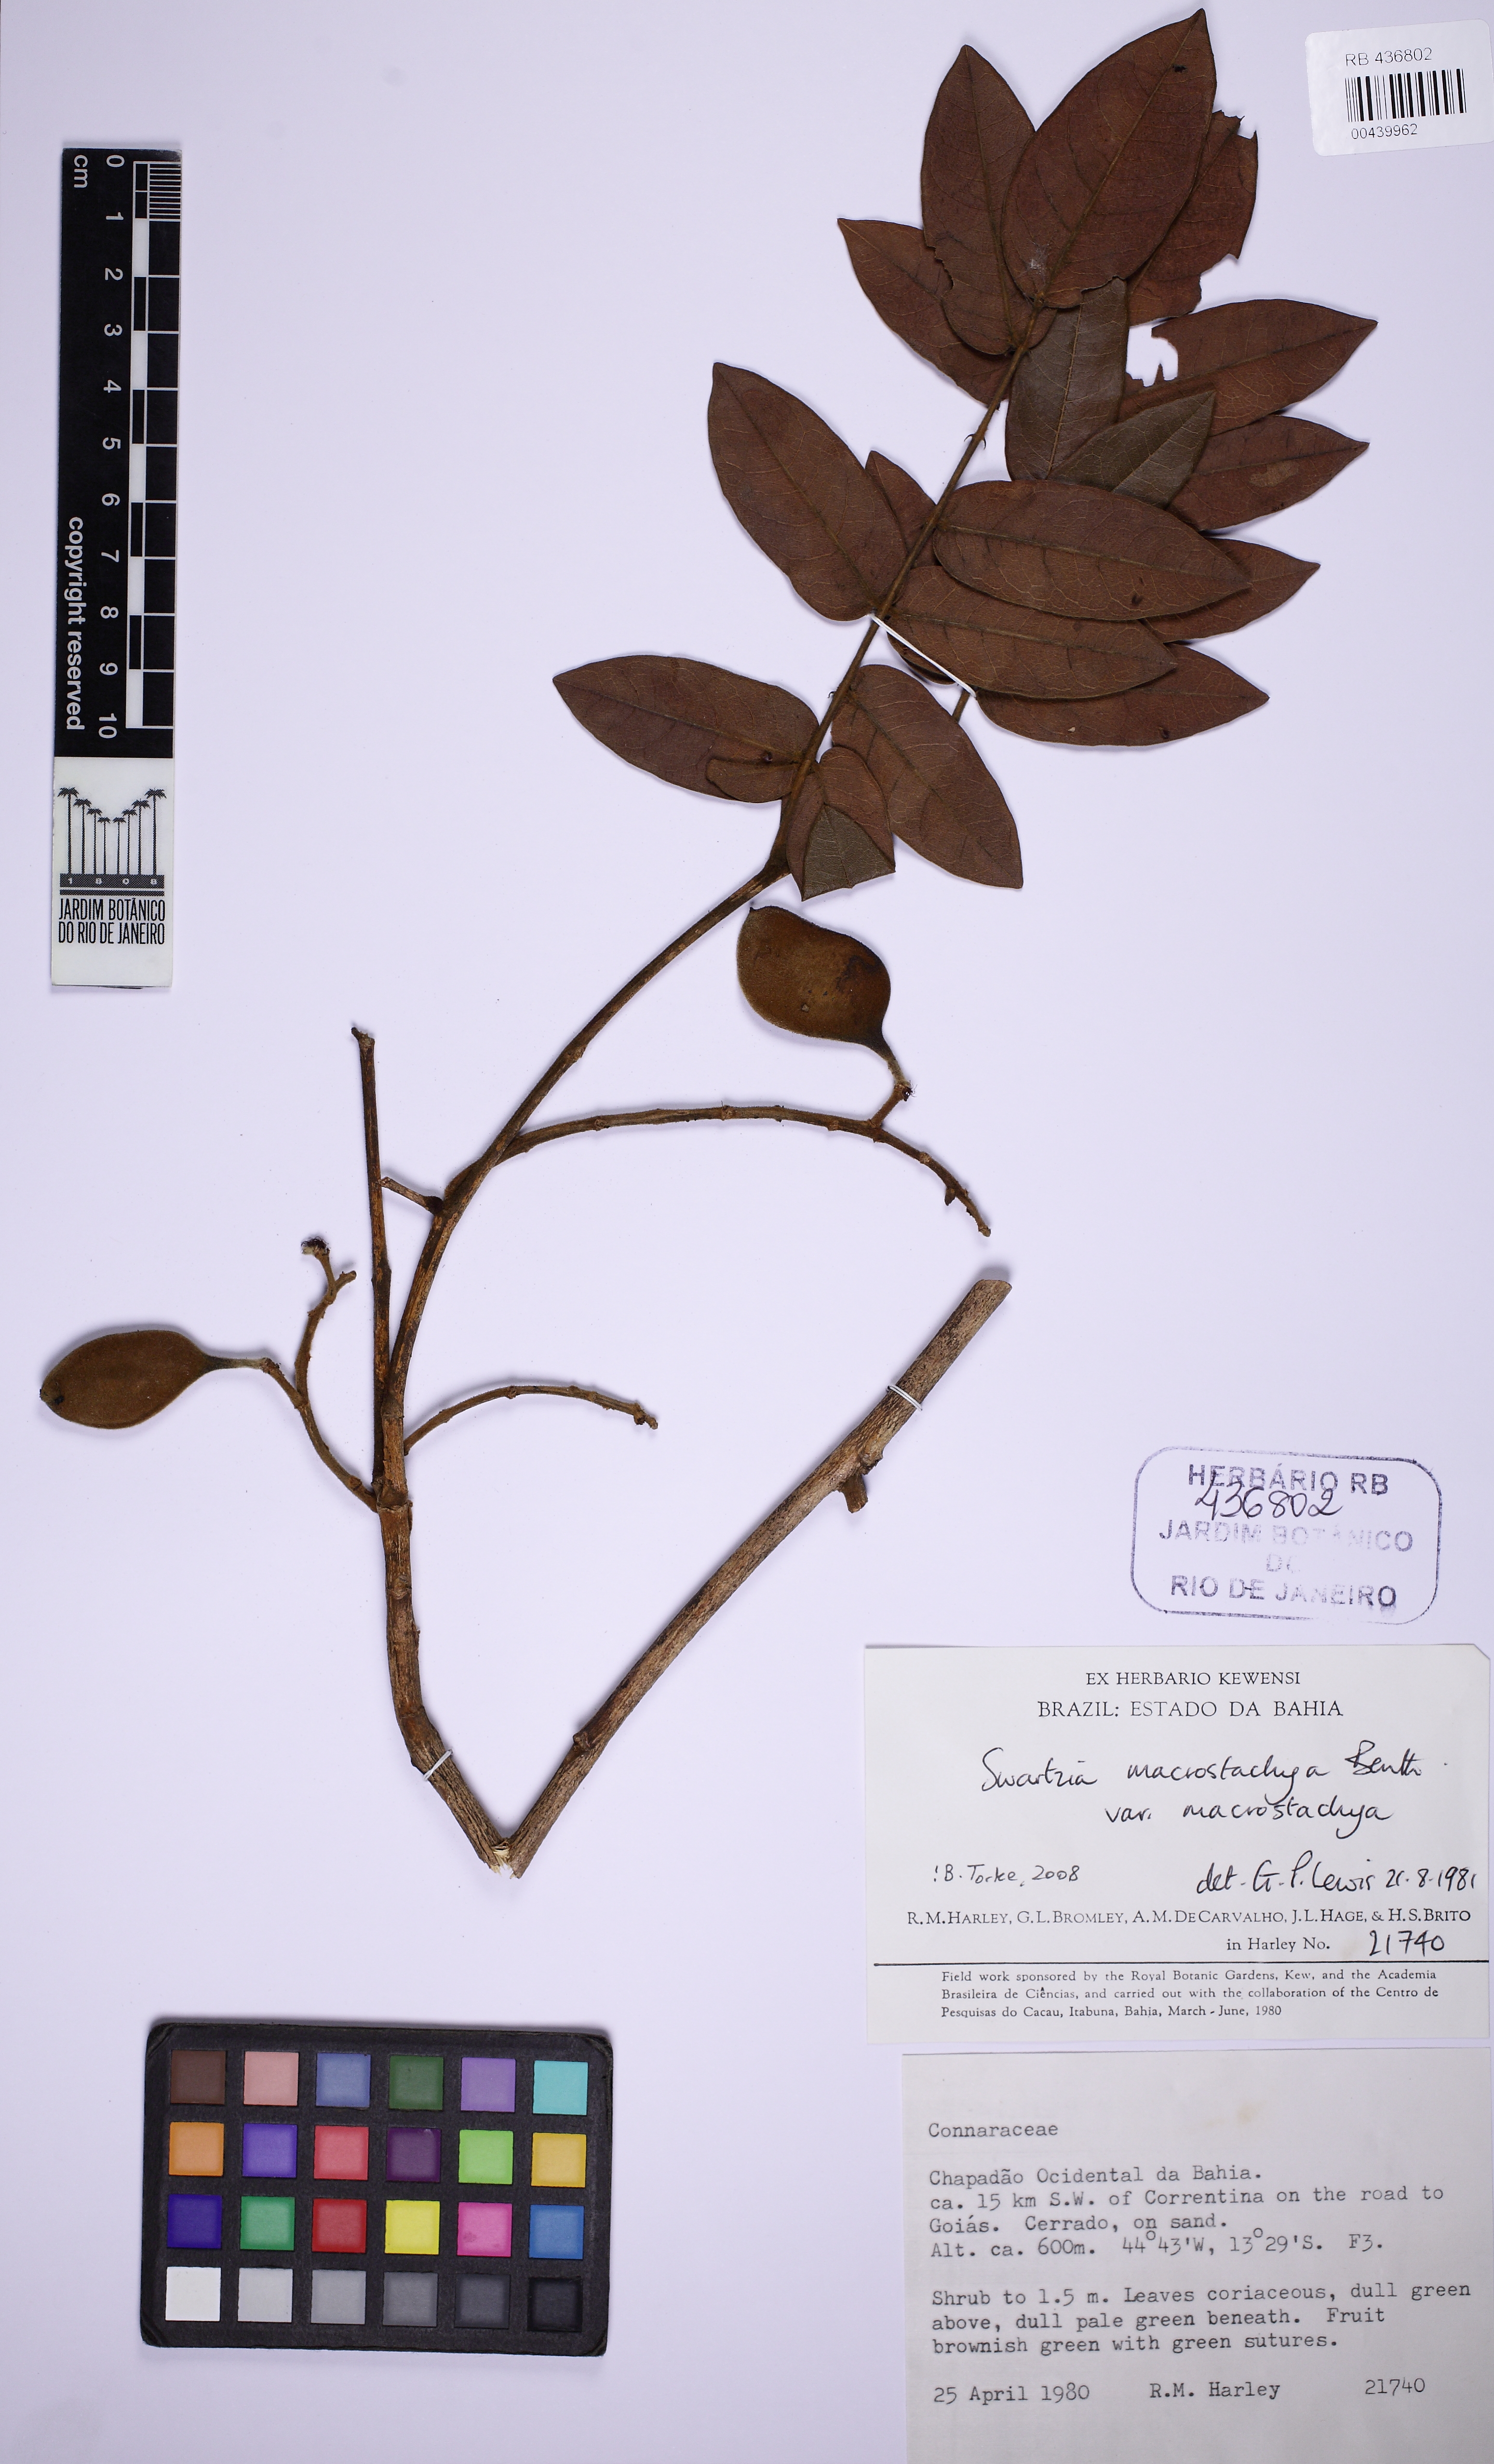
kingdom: Plantae
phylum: Tracheophyta
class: Magnoliopsida
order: Fabales
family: Fabaceae
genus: Swartzia
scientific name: Swartzia macrostachya
